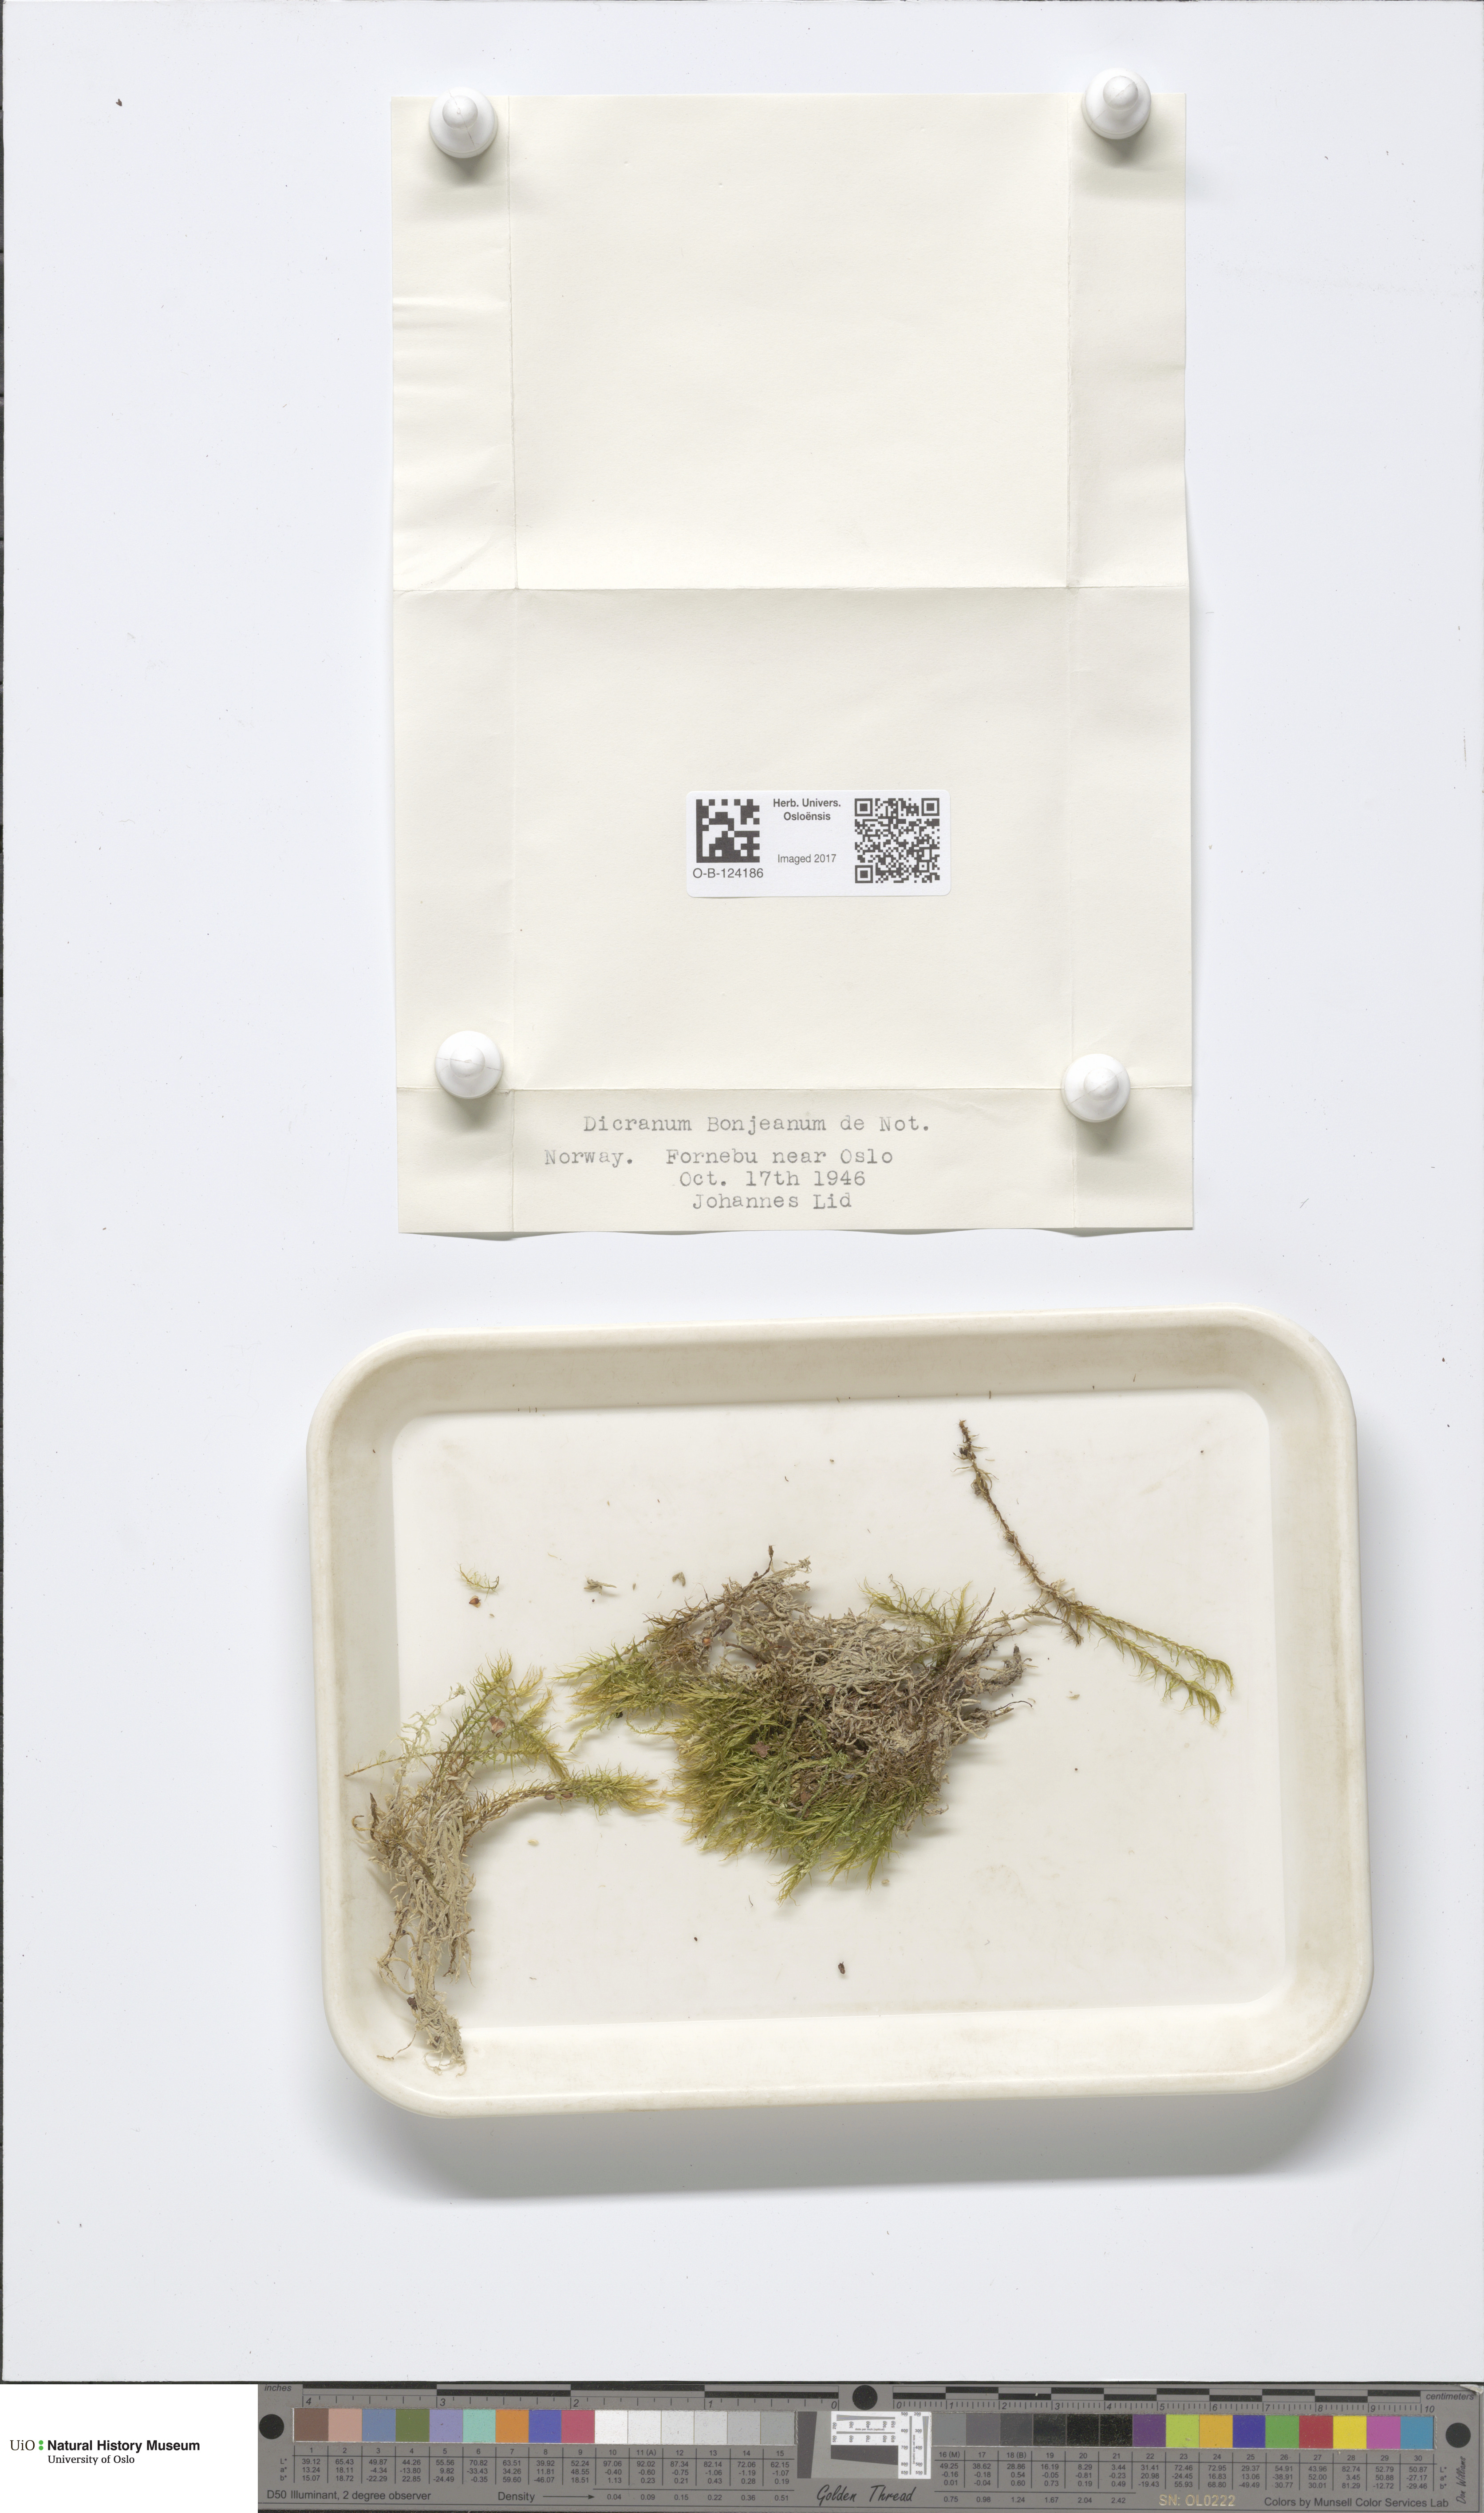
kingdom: Plantae
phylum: Bryophyta
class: Bryopsida
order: Dicranales
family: Dicranaceae
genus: Dicranum
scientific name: Dicranum bonjeanii
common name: Bonjean's broom moss
